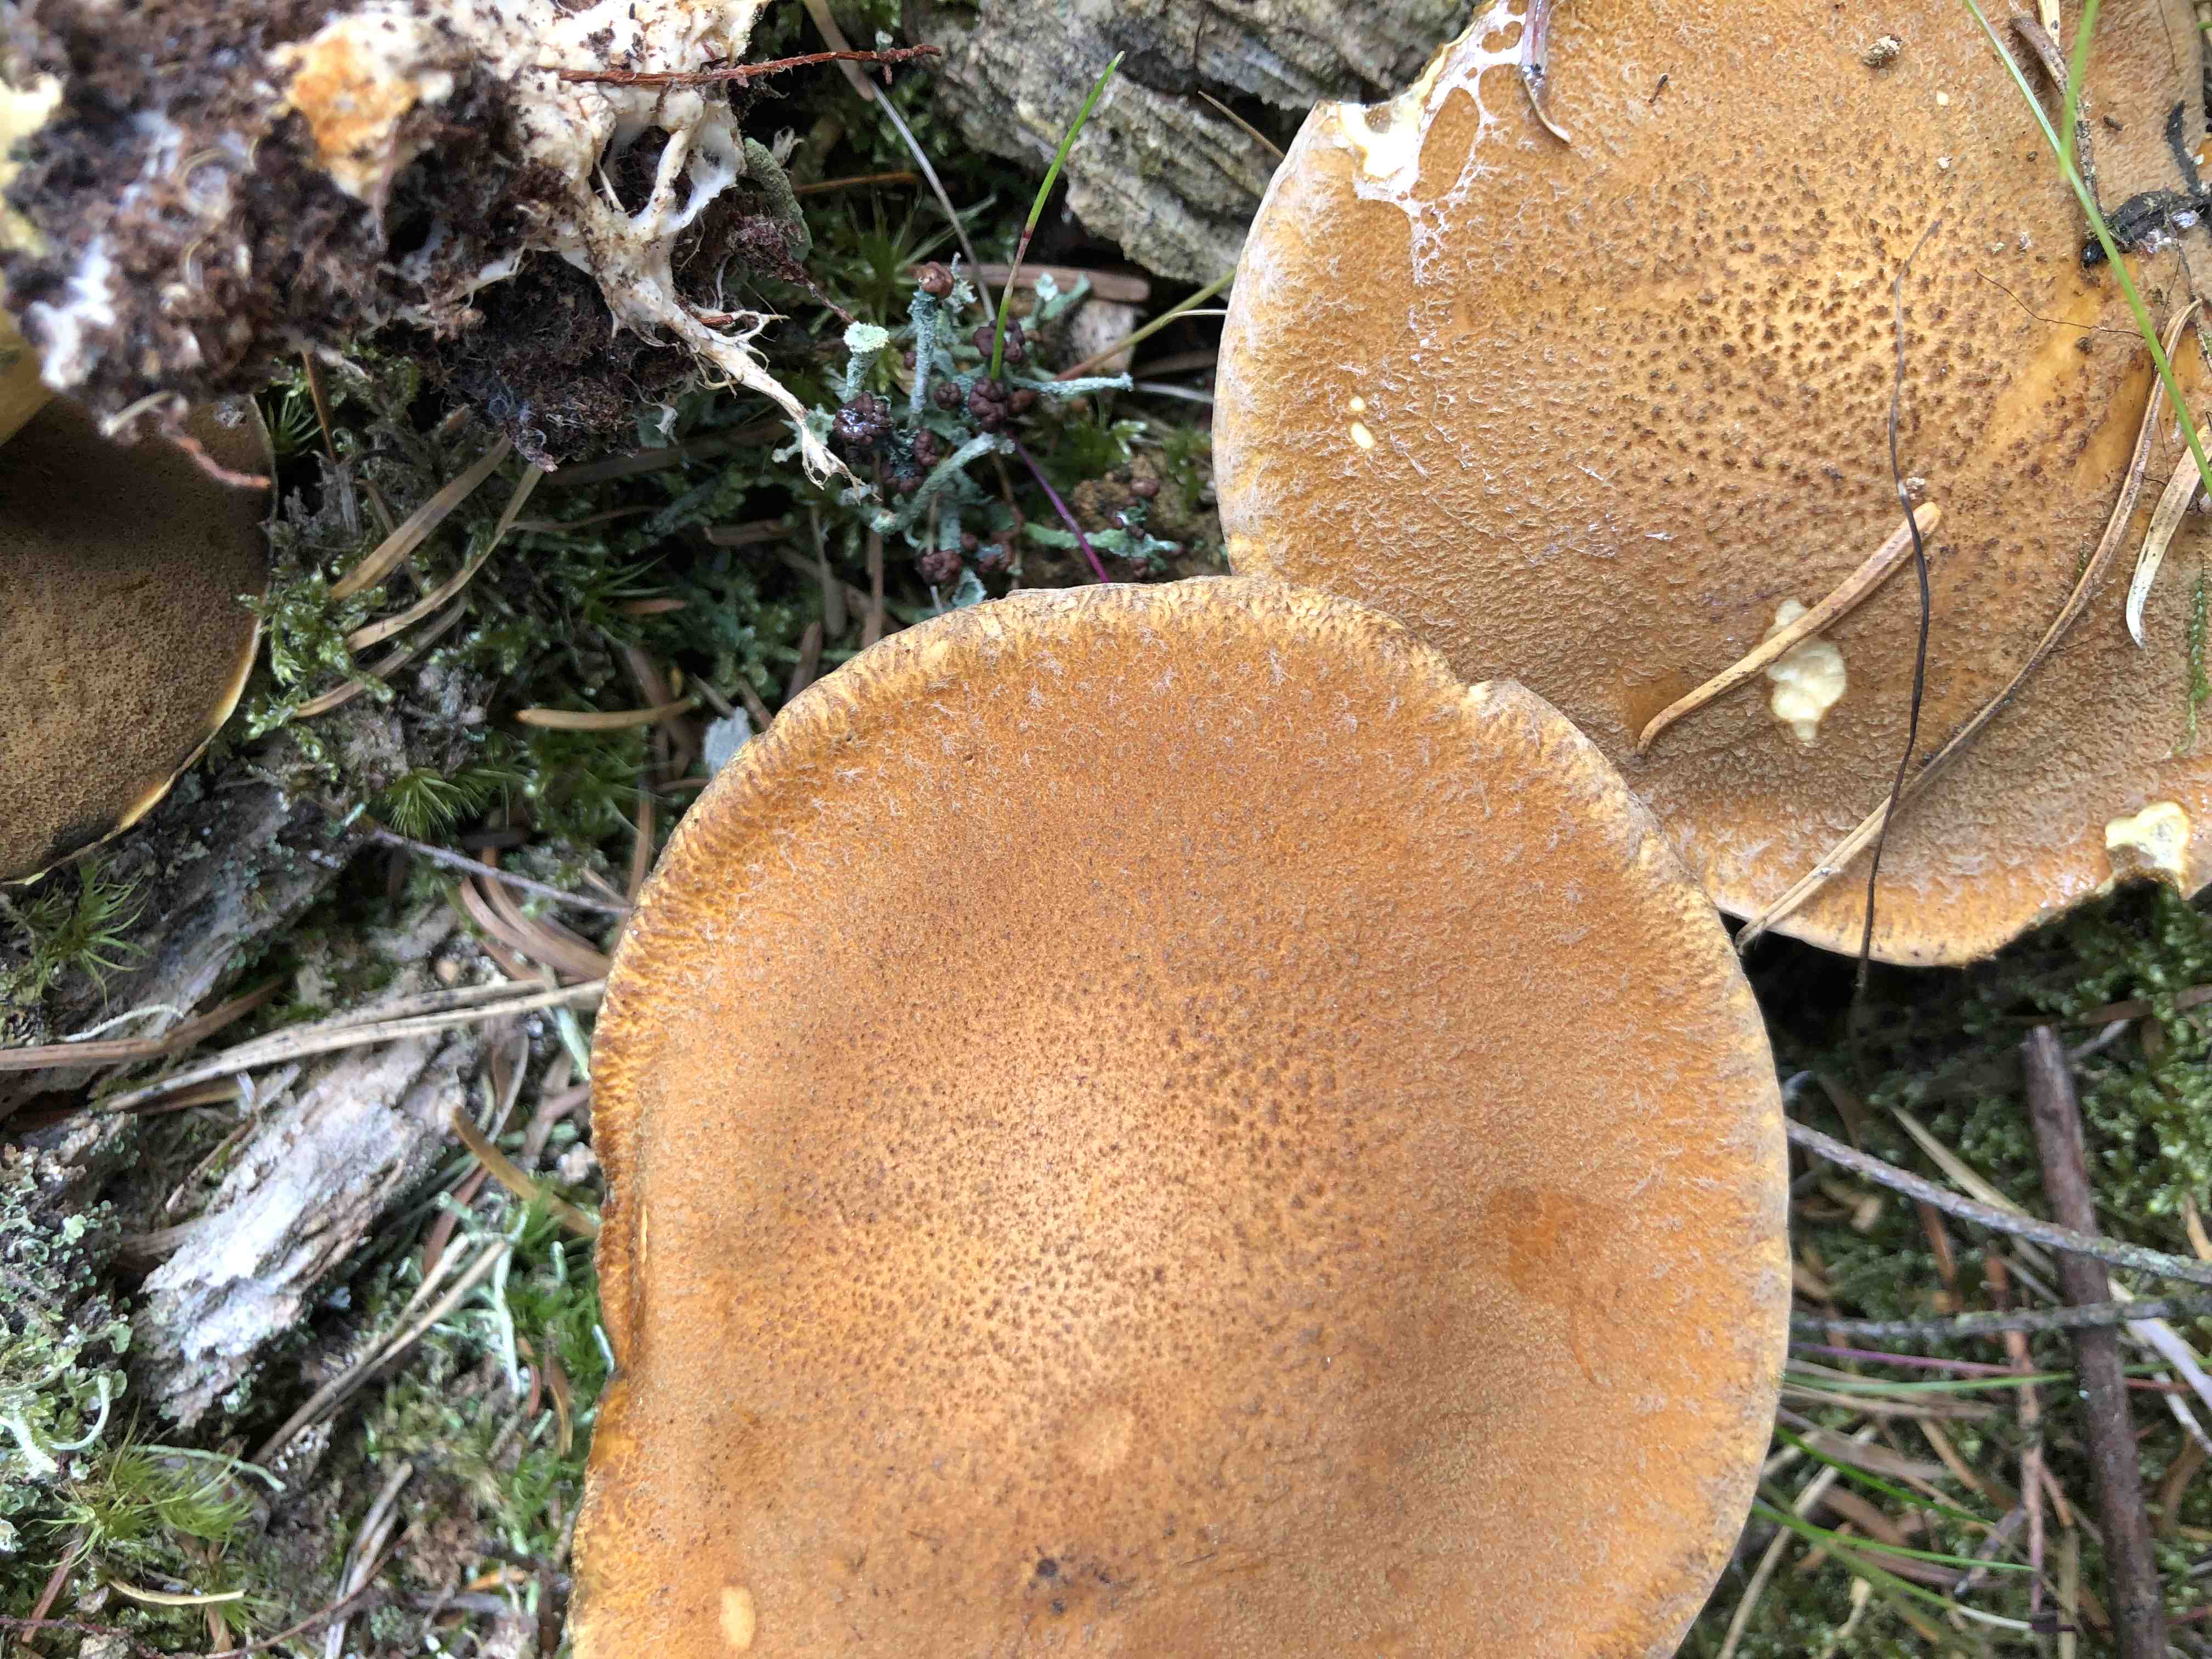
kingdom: Fungi
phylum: Basidiomycota
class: Agaricomycetes
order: Boletales
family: Suillaceae
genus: Suillus
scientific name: Suillus variegatus
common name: broget slimrørhat
